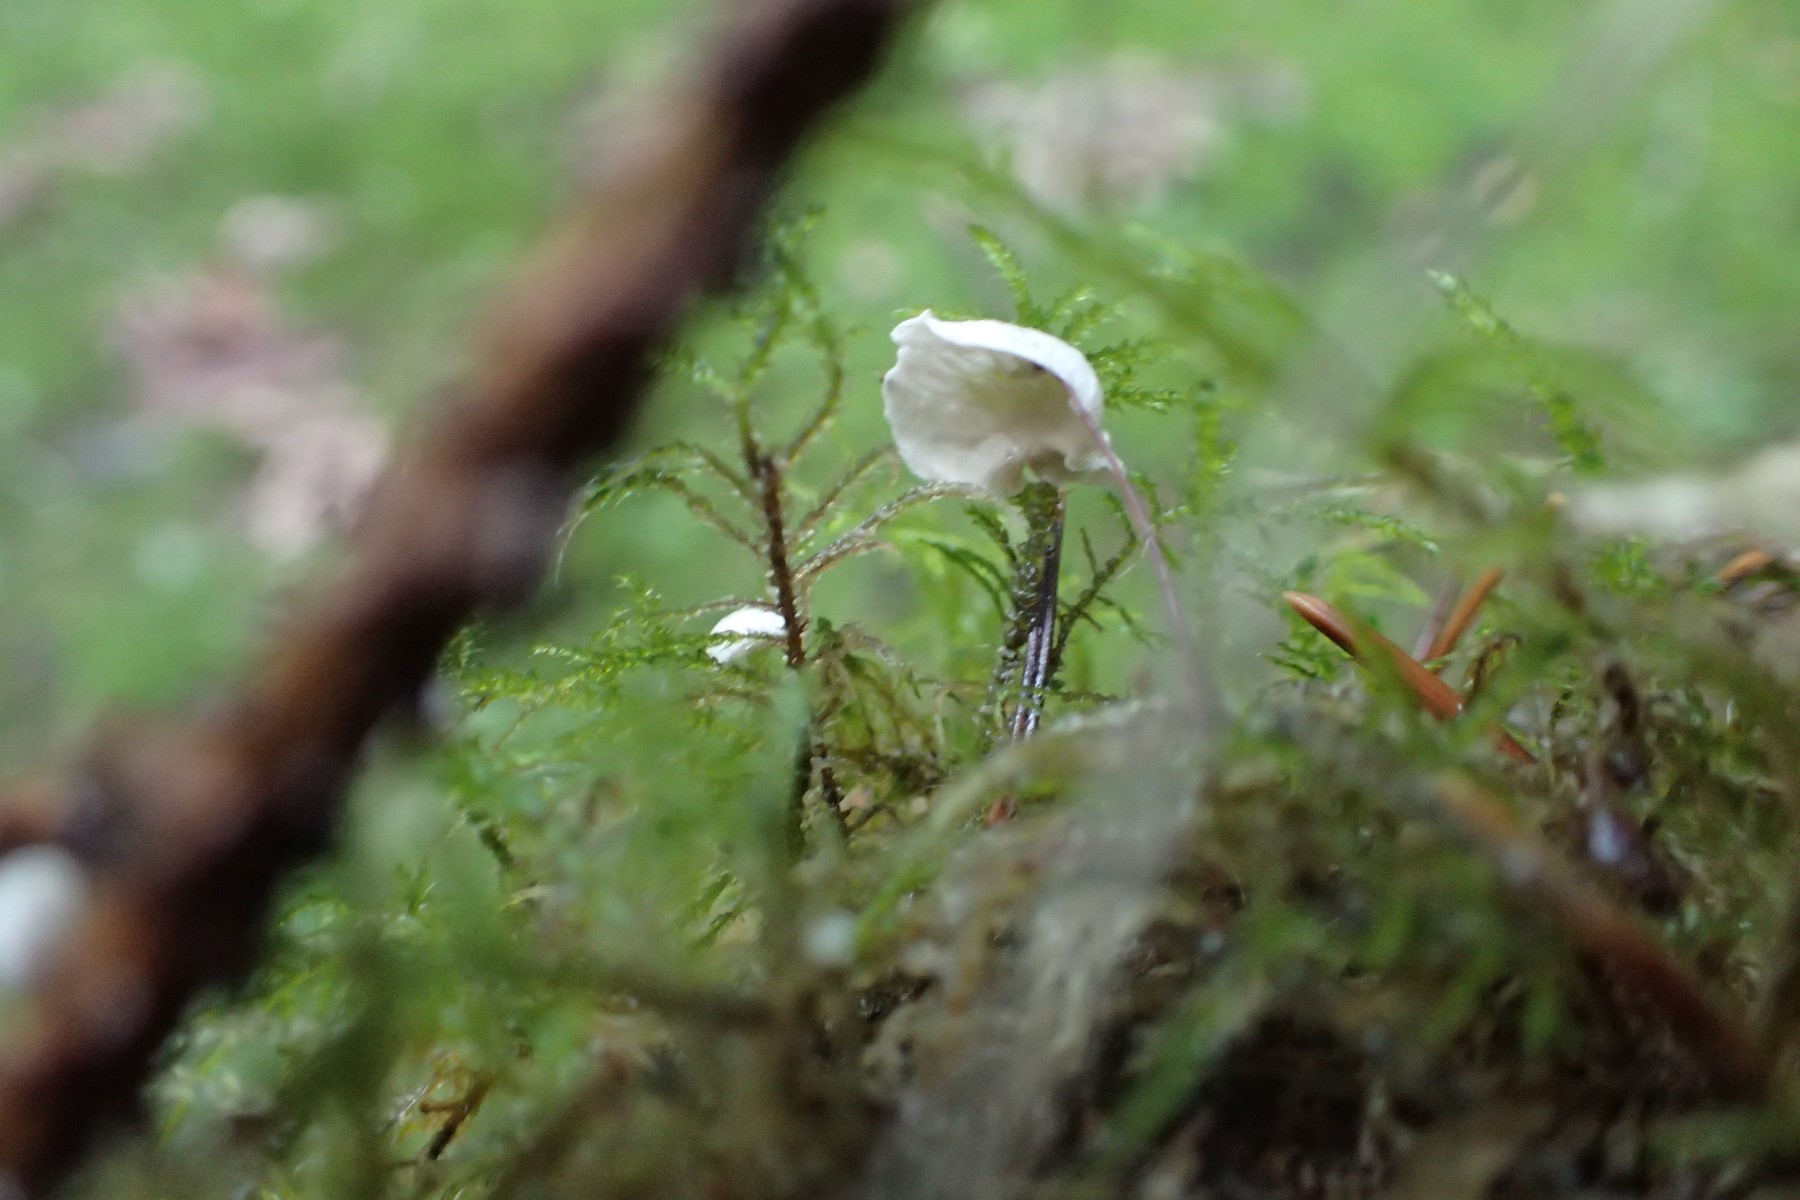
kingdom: Fungi
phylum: Basidiomycota
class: Agaricomycetes
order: Agaricales
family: Hygrophoraceae
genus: Arrhenia
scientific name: Arrhenia retiruga
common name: lille fontænehat
